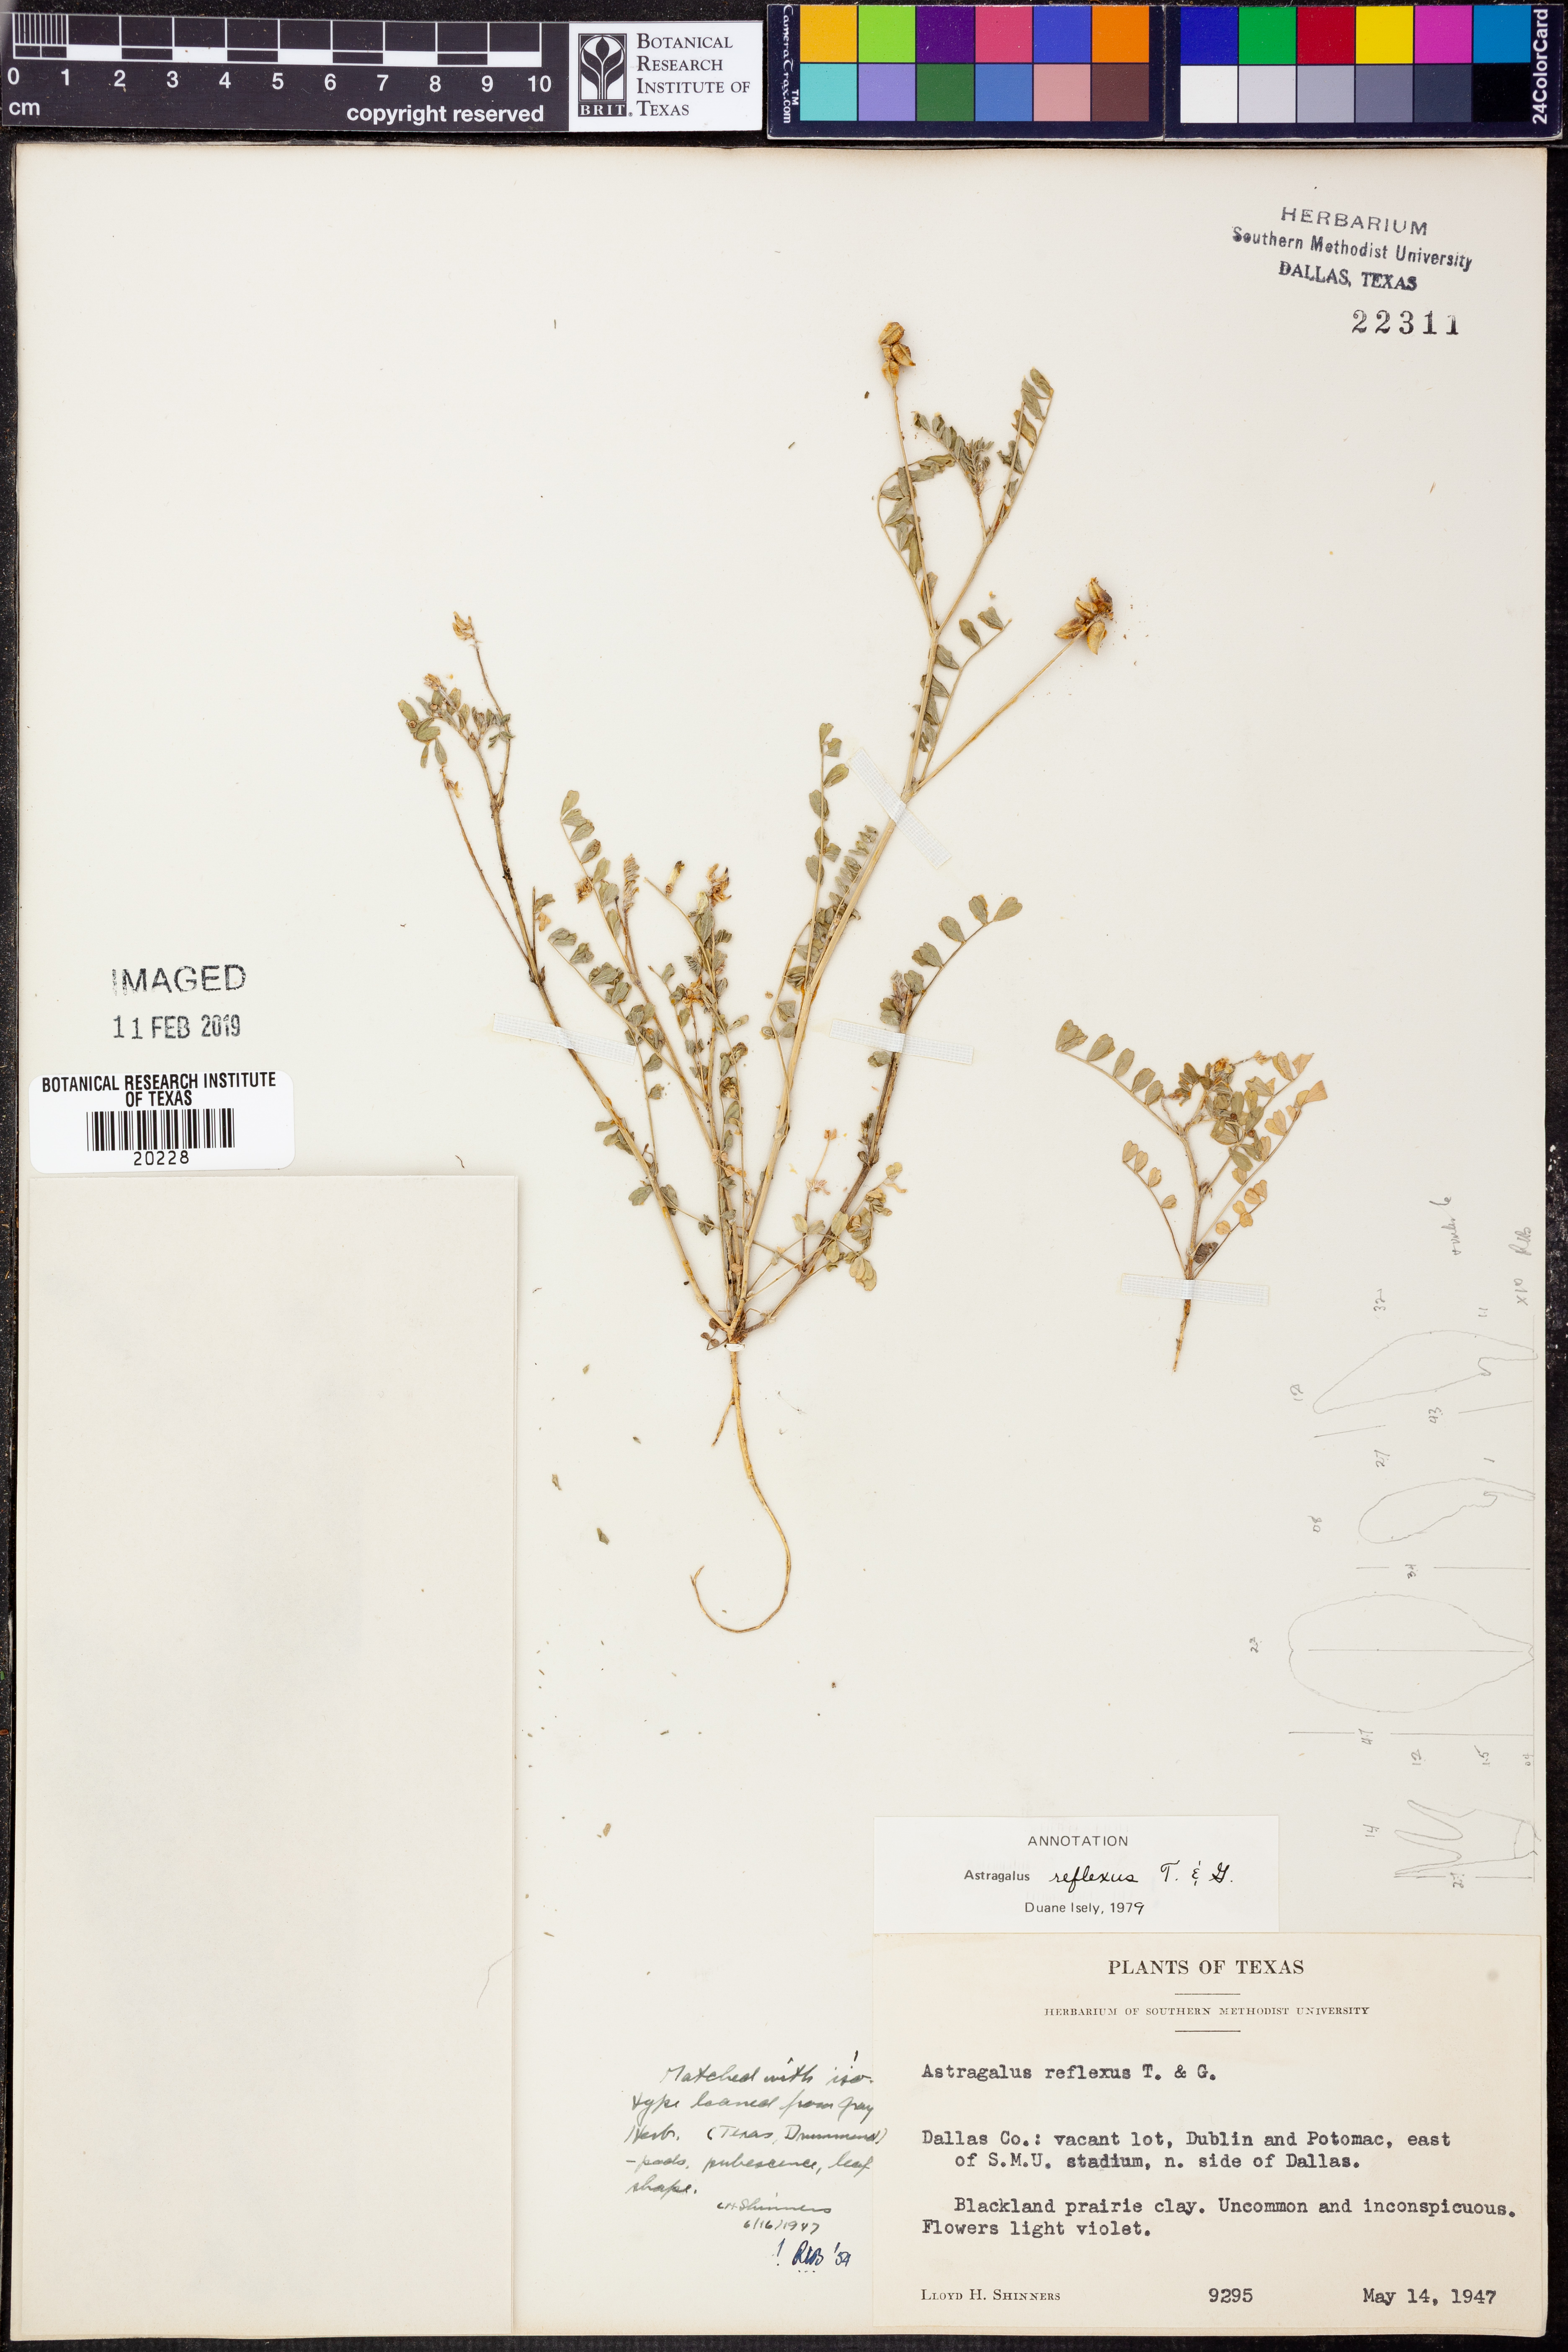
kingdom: Plantae
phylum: Tracheophyta
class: Magnoliopsida
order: Fabales
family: Fabaceae
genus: Astragalus
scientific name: Astragalus reflexus
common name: Texas milk-vetch
